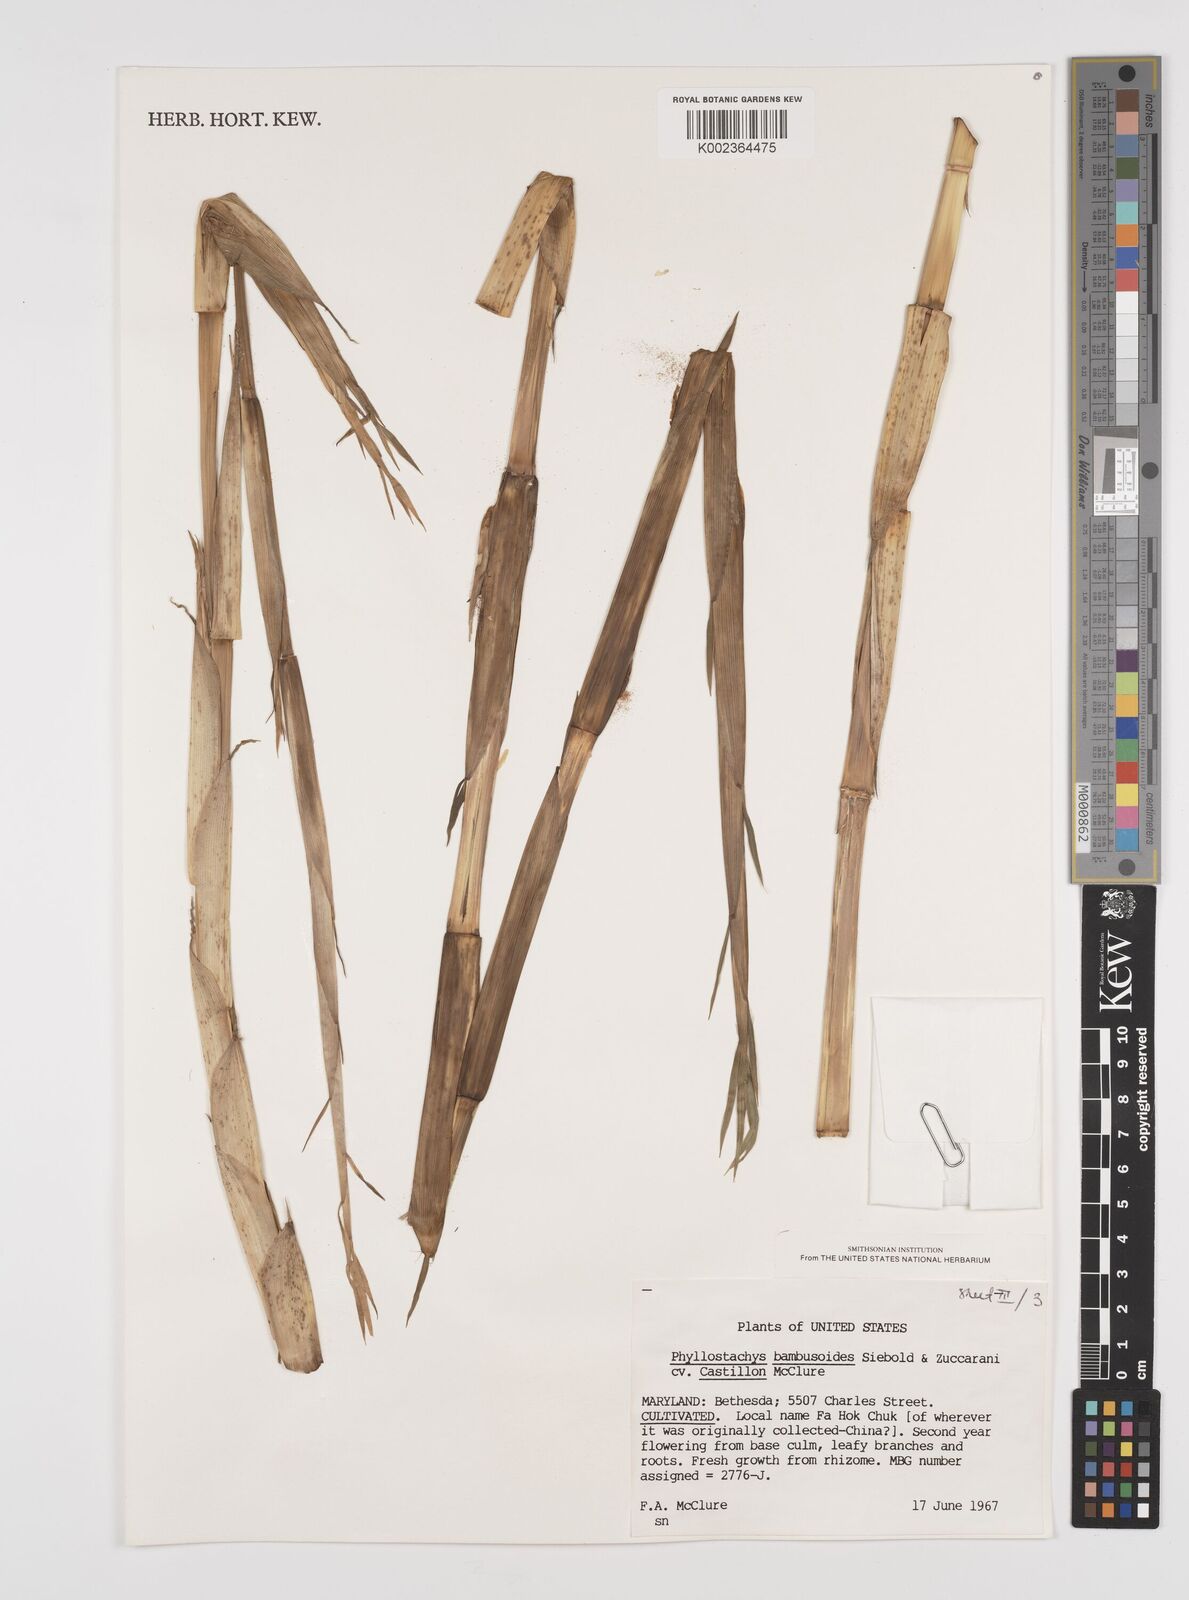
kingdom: Plantae
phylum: Tracheophyta
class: Liliopsida
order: Poales
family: Poaceae
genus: Phyllostachys
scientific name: Phyllostachys
